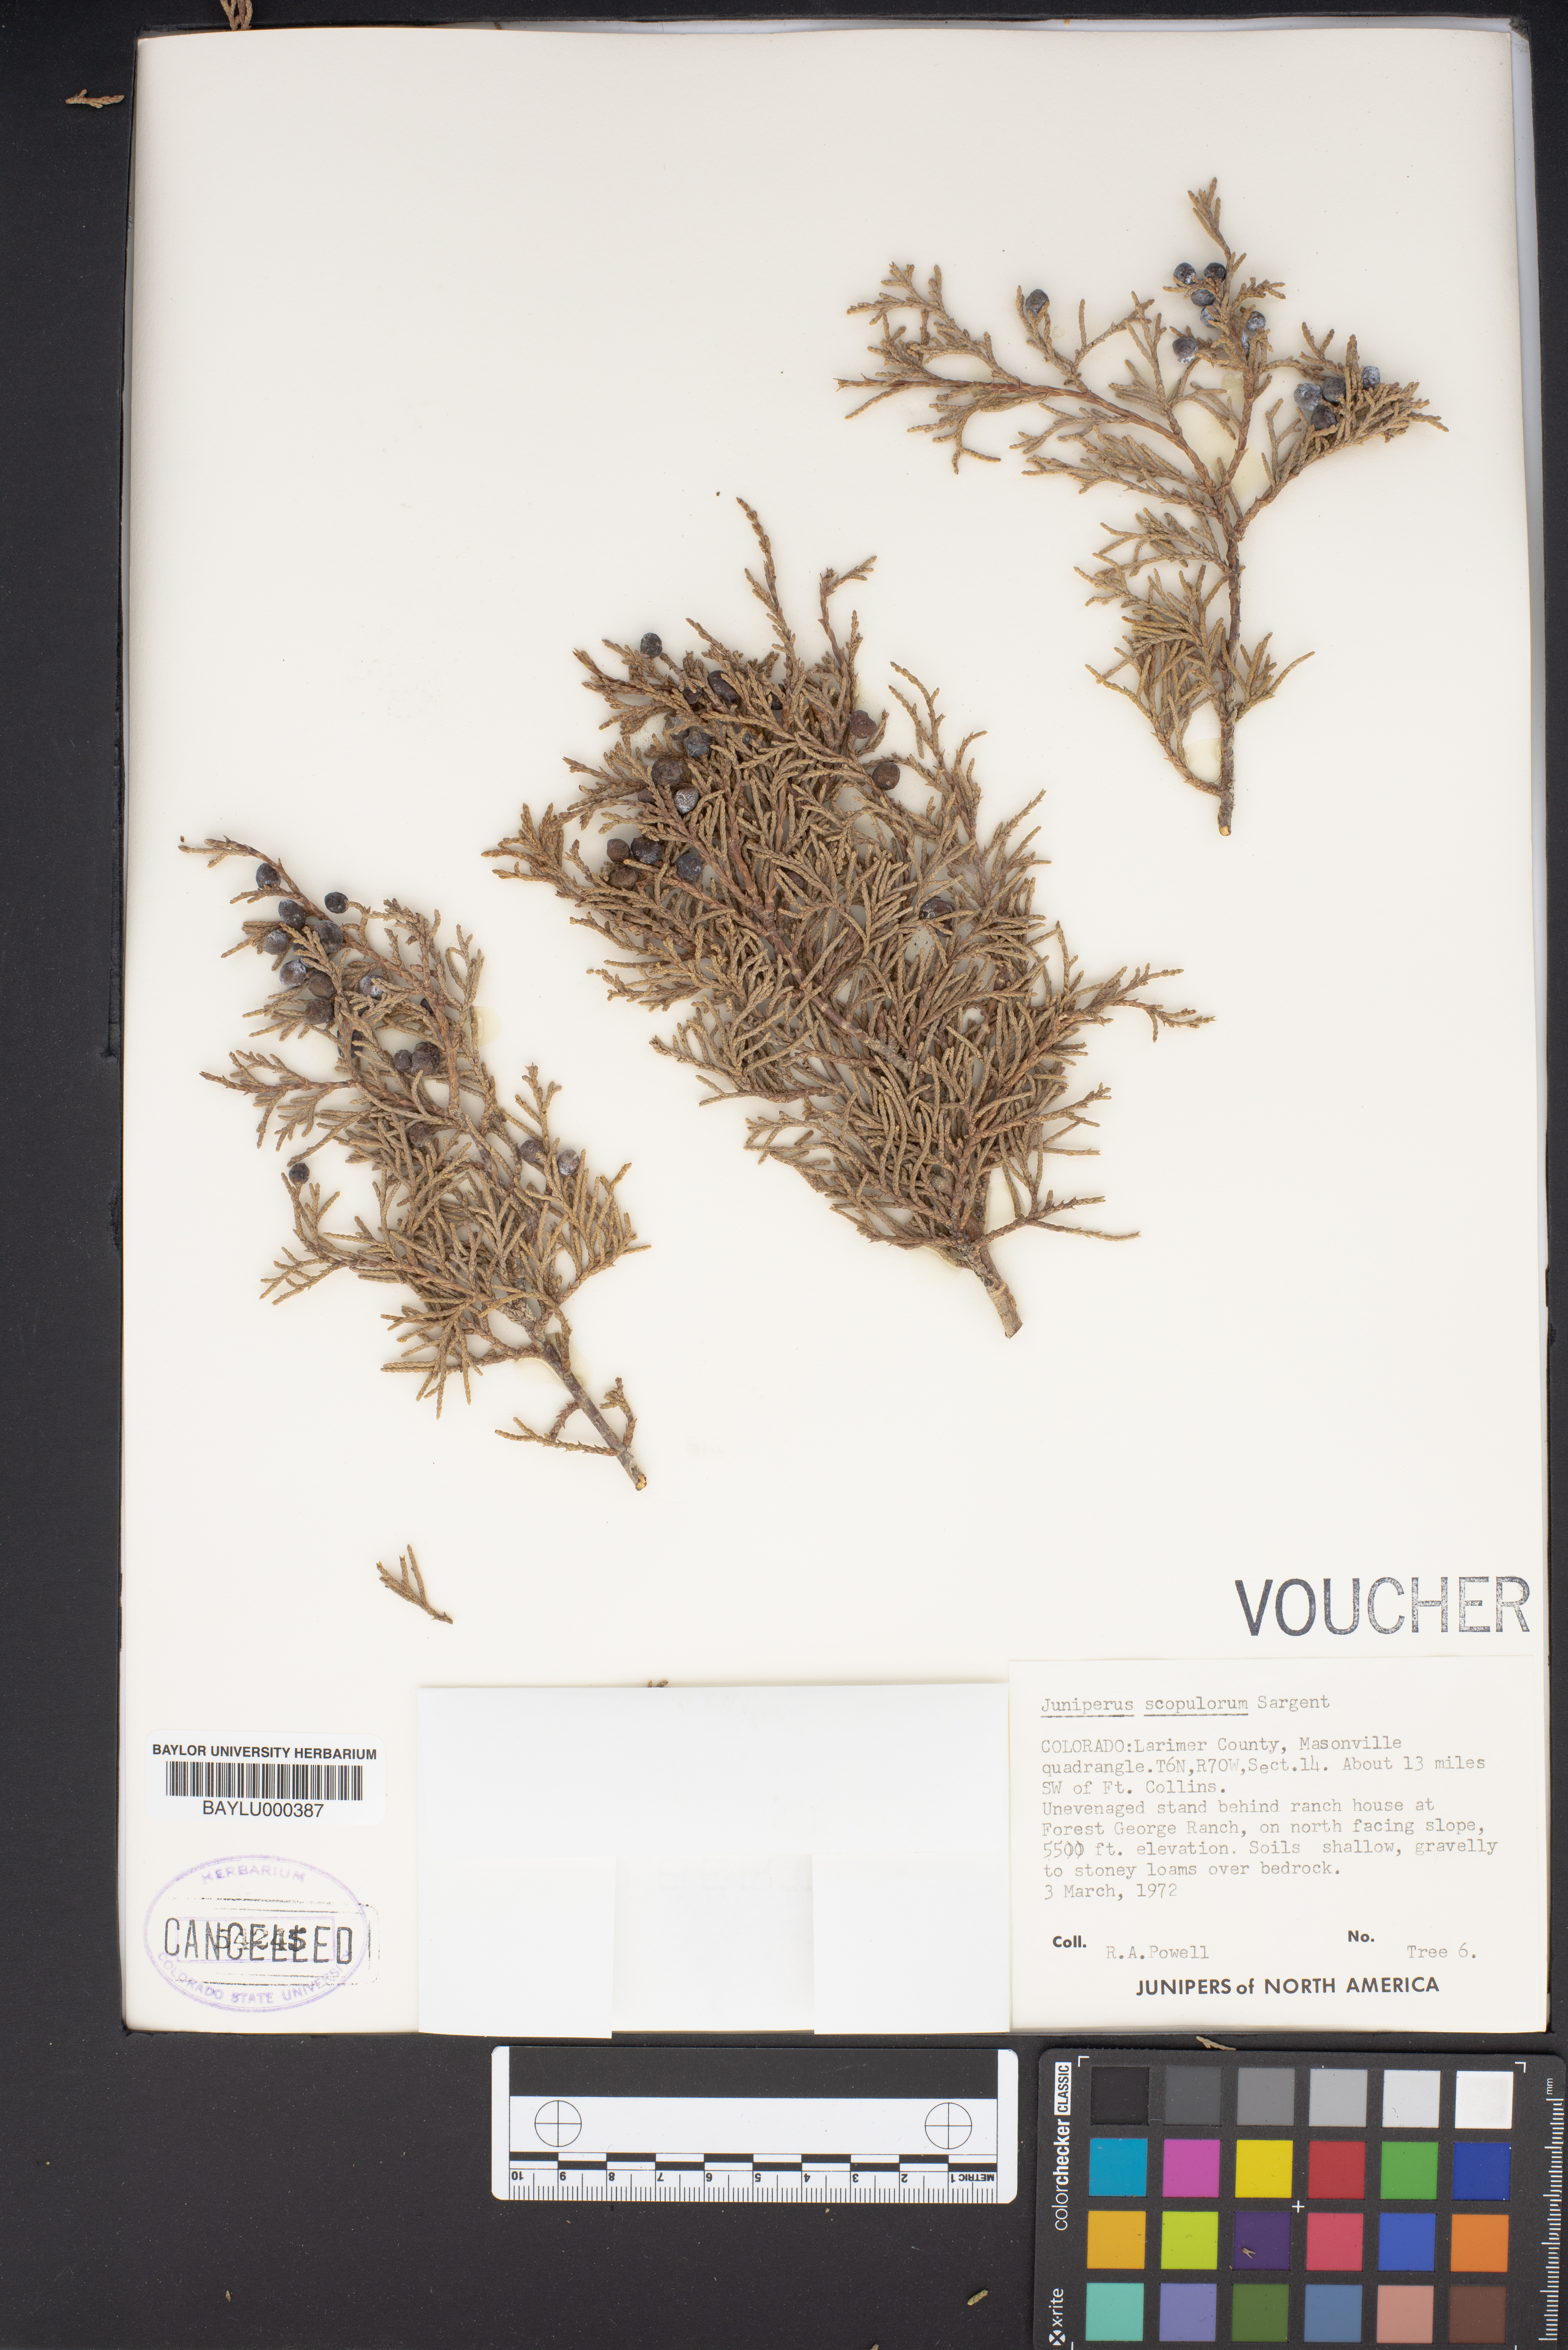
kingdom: Plantae
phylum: Tracheophyta
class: Pinopsida
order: Pinales
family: Cupressaceae
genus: Juniperus
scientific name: Juniperus scopulorum
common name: Rocky mountain juniper
